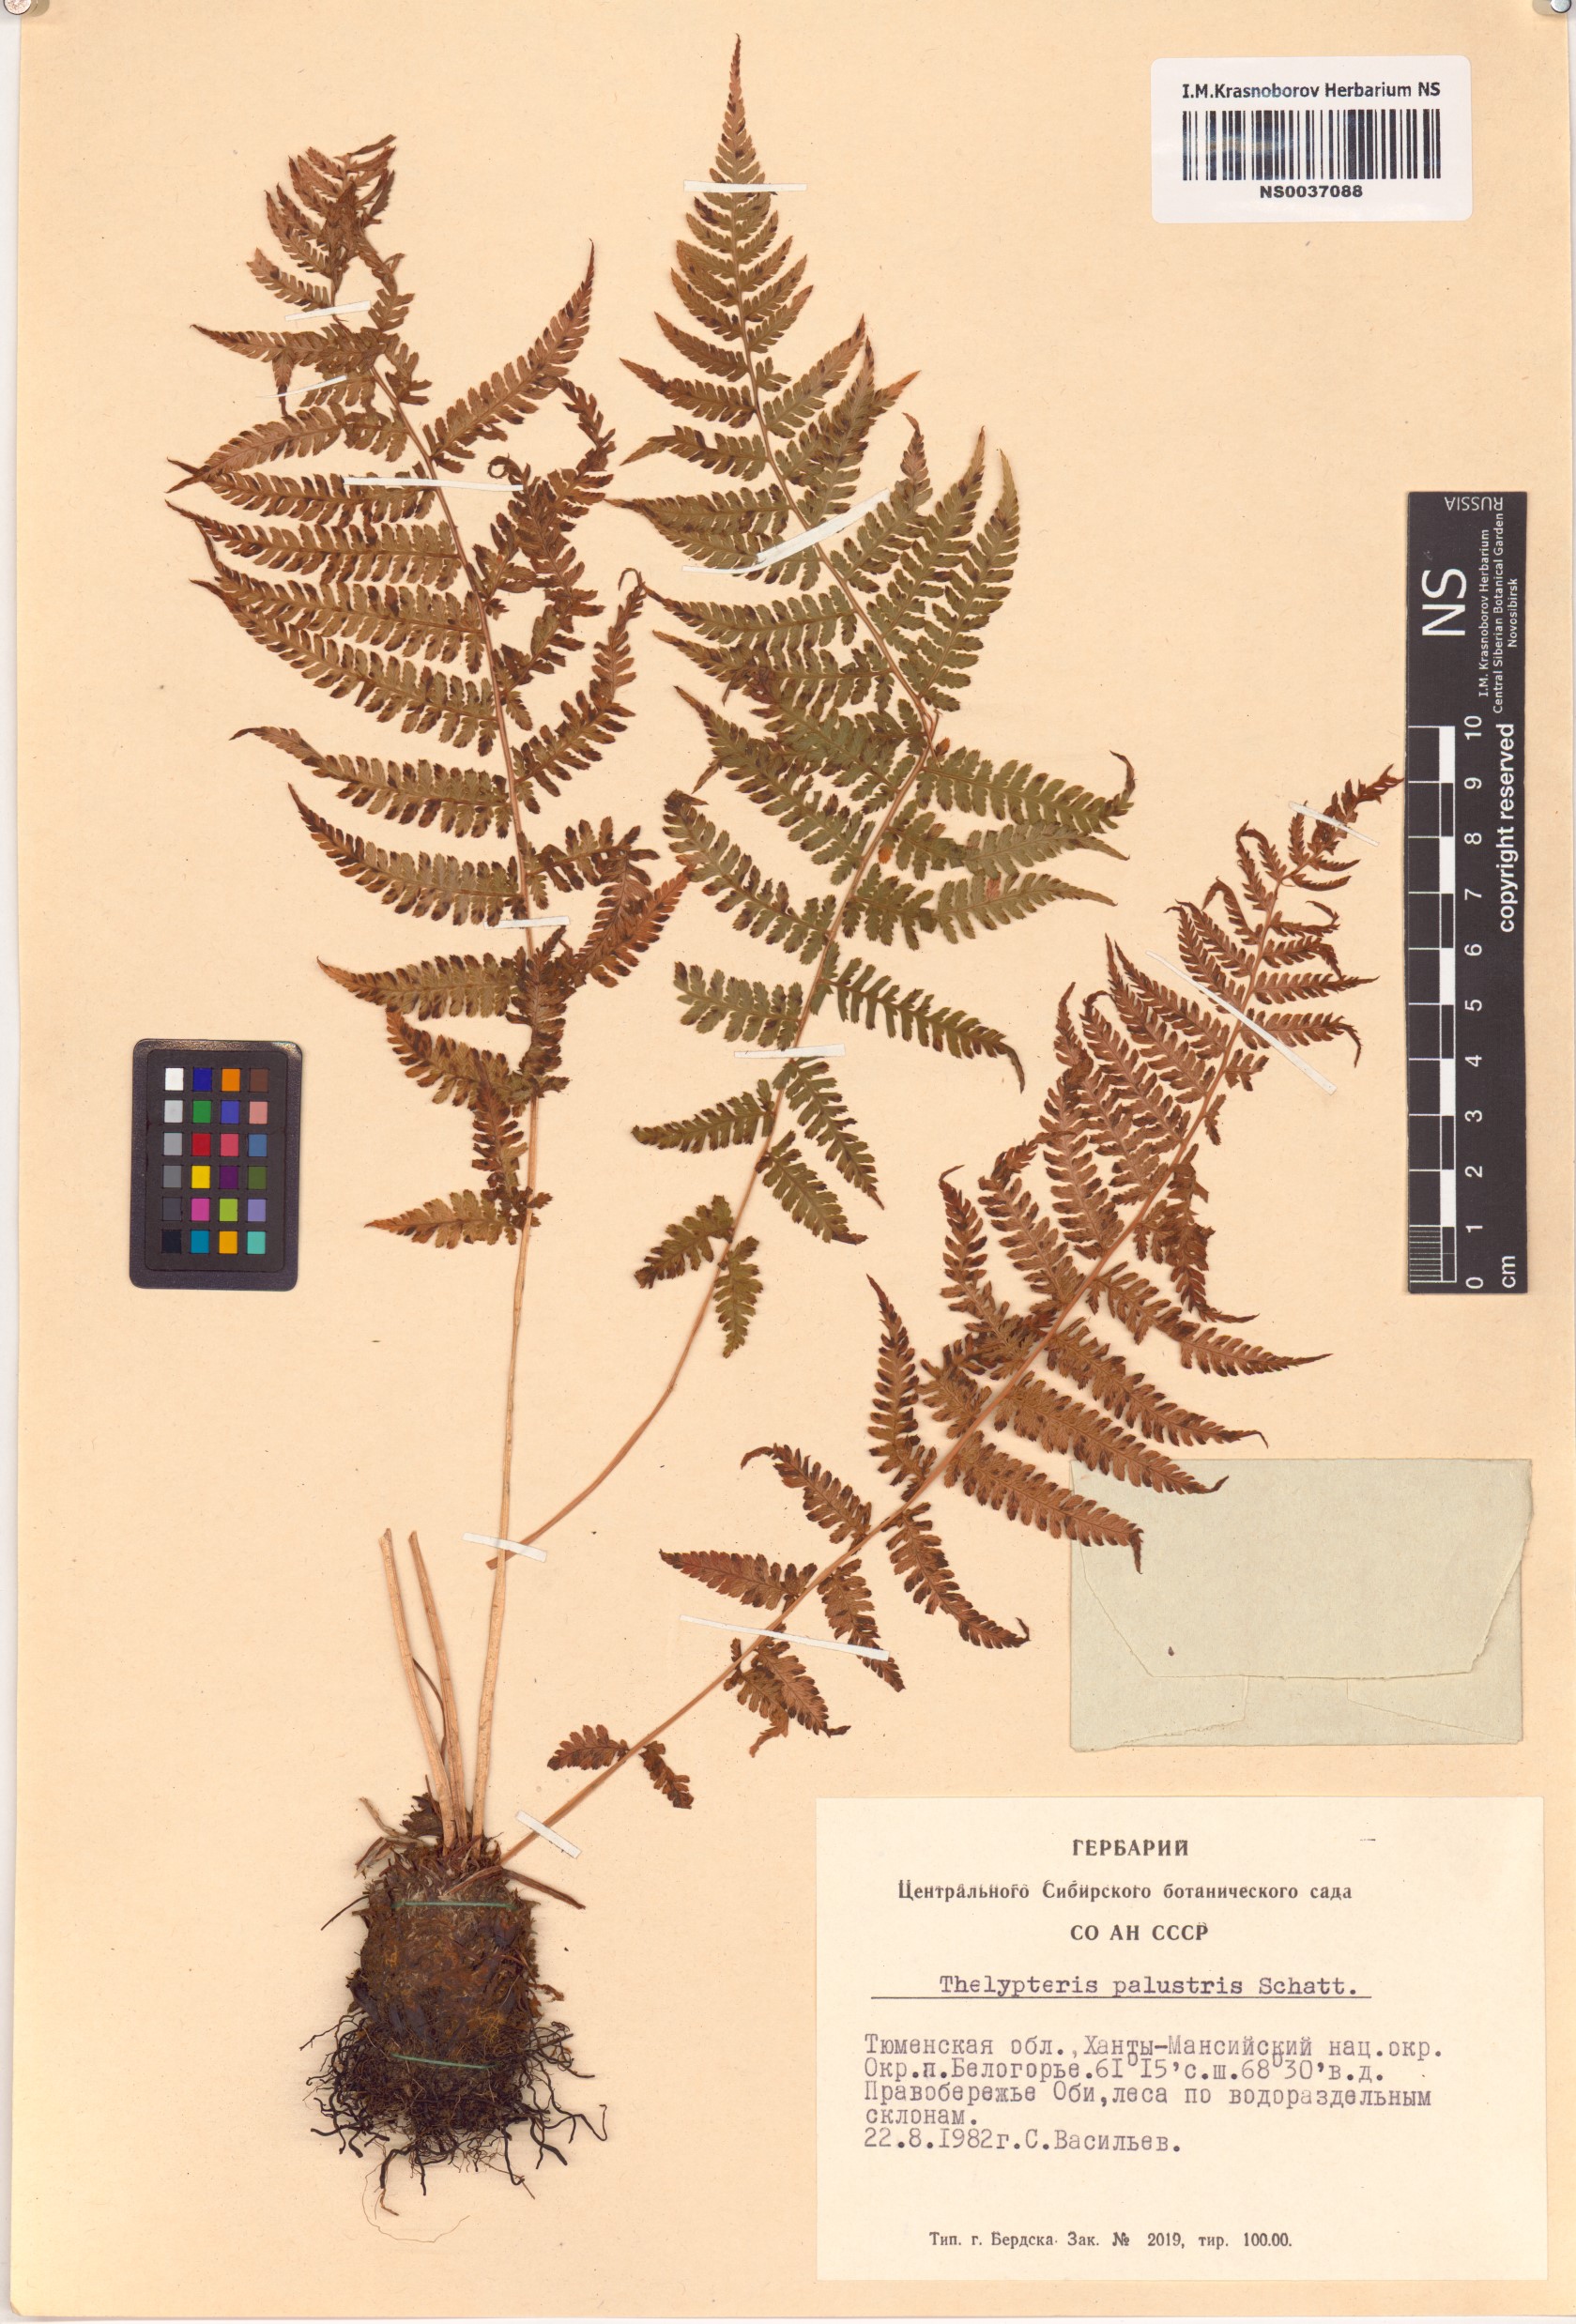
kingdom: Plantae
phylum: Tracheophyta
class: Polypodiopsida
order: Polypodiales
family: Thelypteridaceae
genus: Thelypteris
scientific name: Thelypteris palustris
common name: Marsh fern
